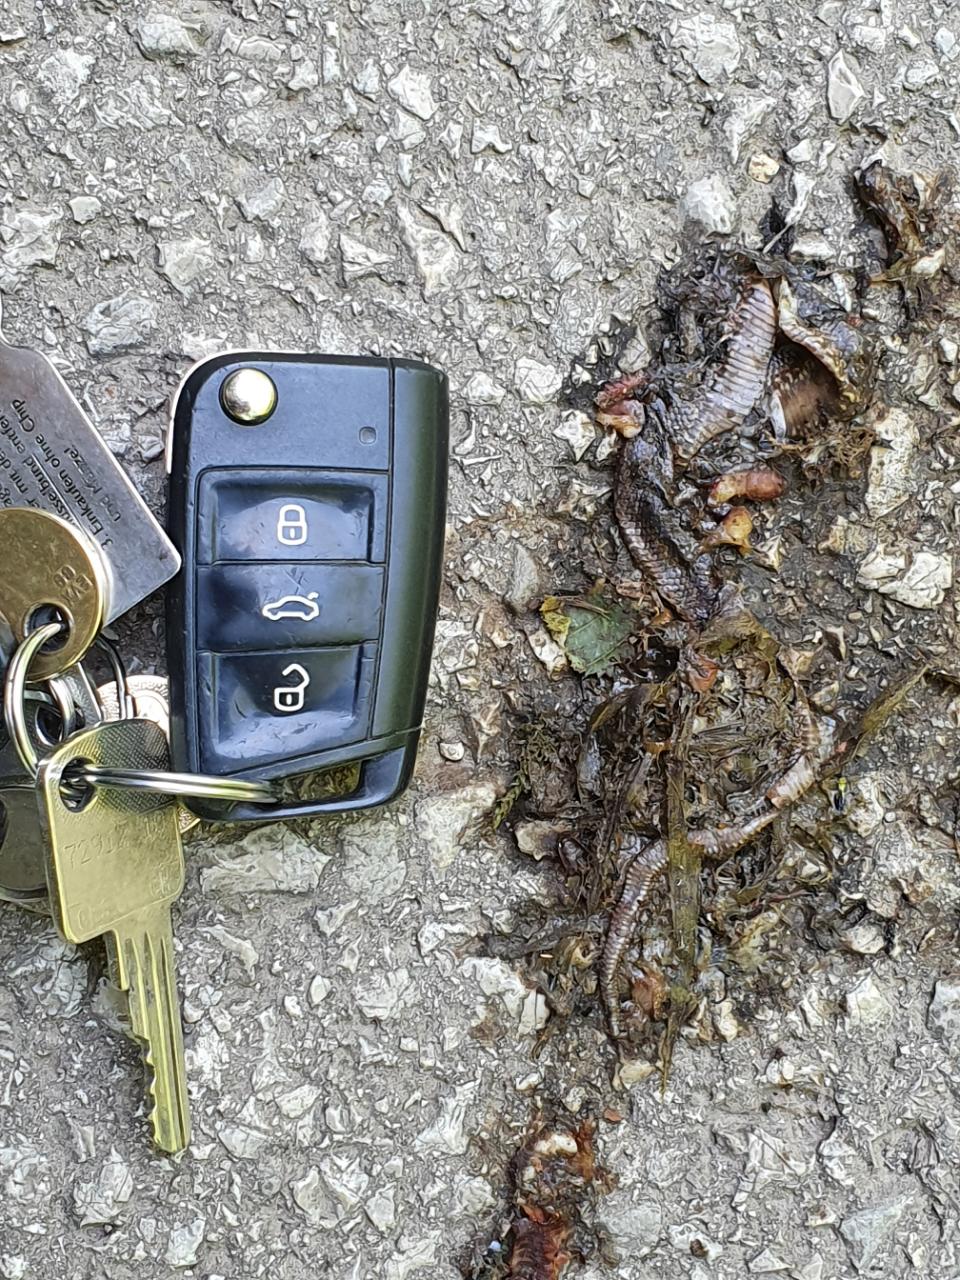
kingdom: Animalia
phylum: Chordata
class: Squamata
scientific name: Squamata
